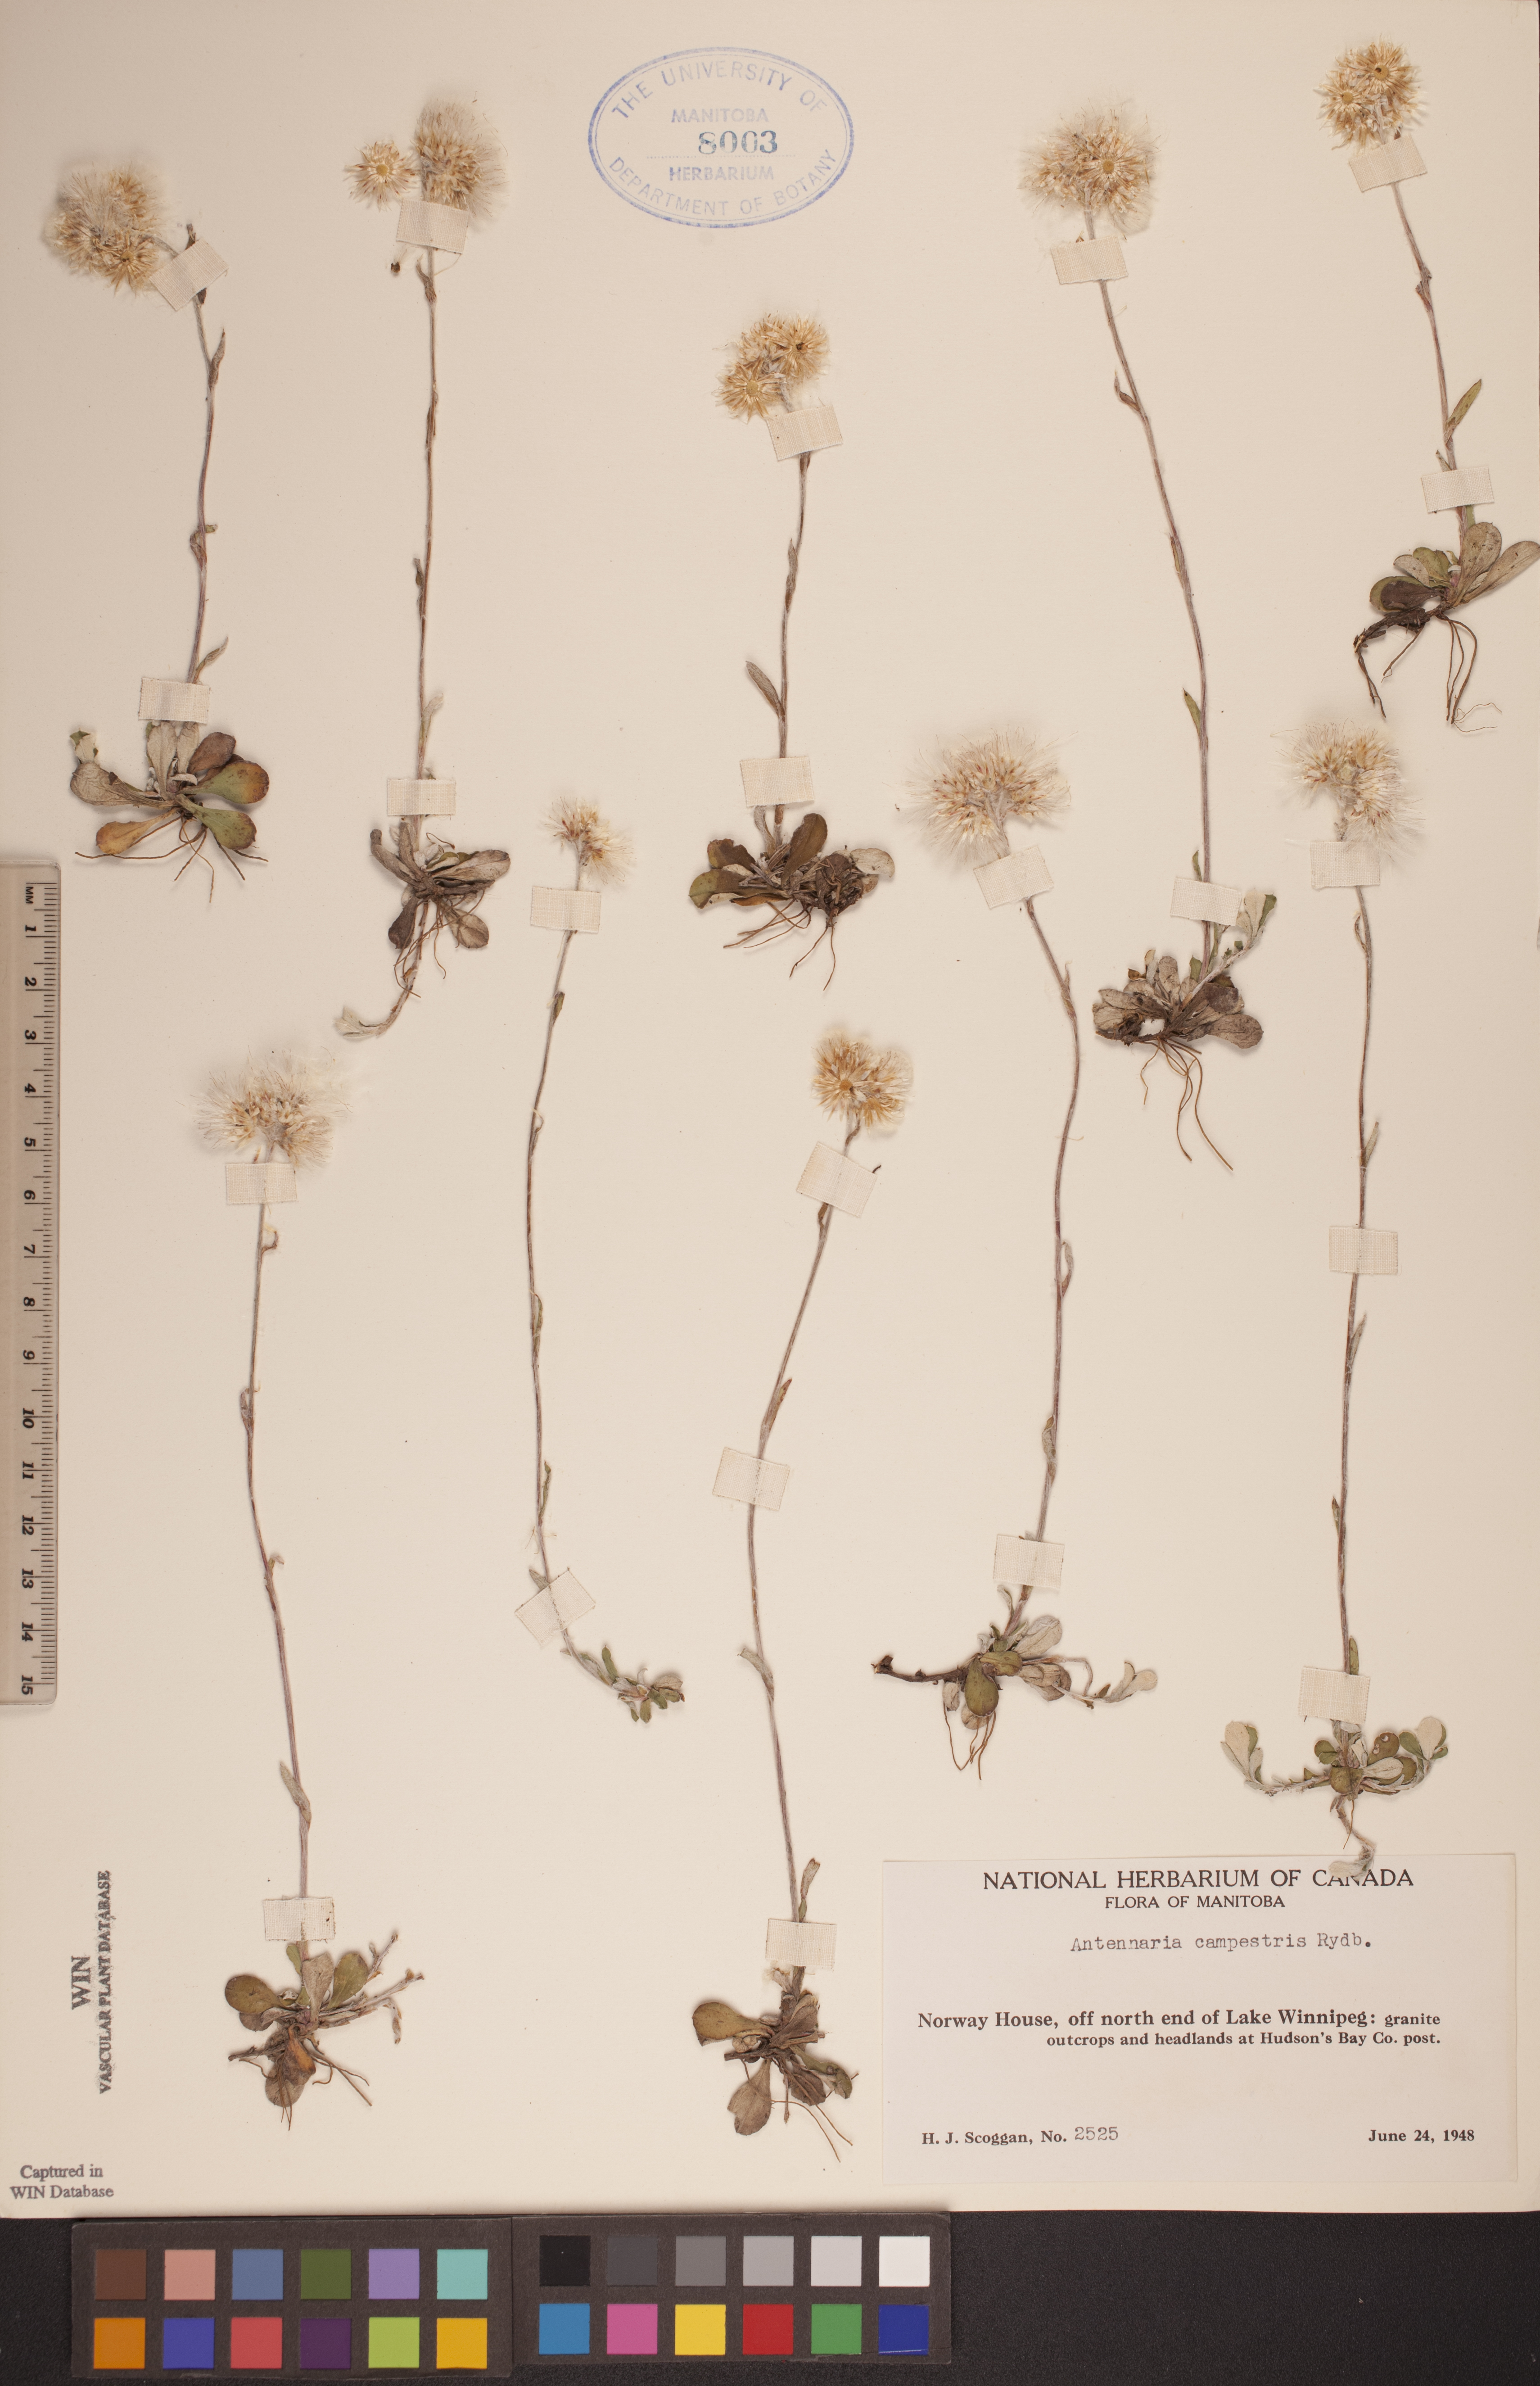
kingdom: Plantae
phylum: Tracheophyta
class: Magnoliopsida
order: Asterales
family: Asteraceae
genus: Antennaria
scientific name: Antennaria neglecta
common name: Field pussytoes
